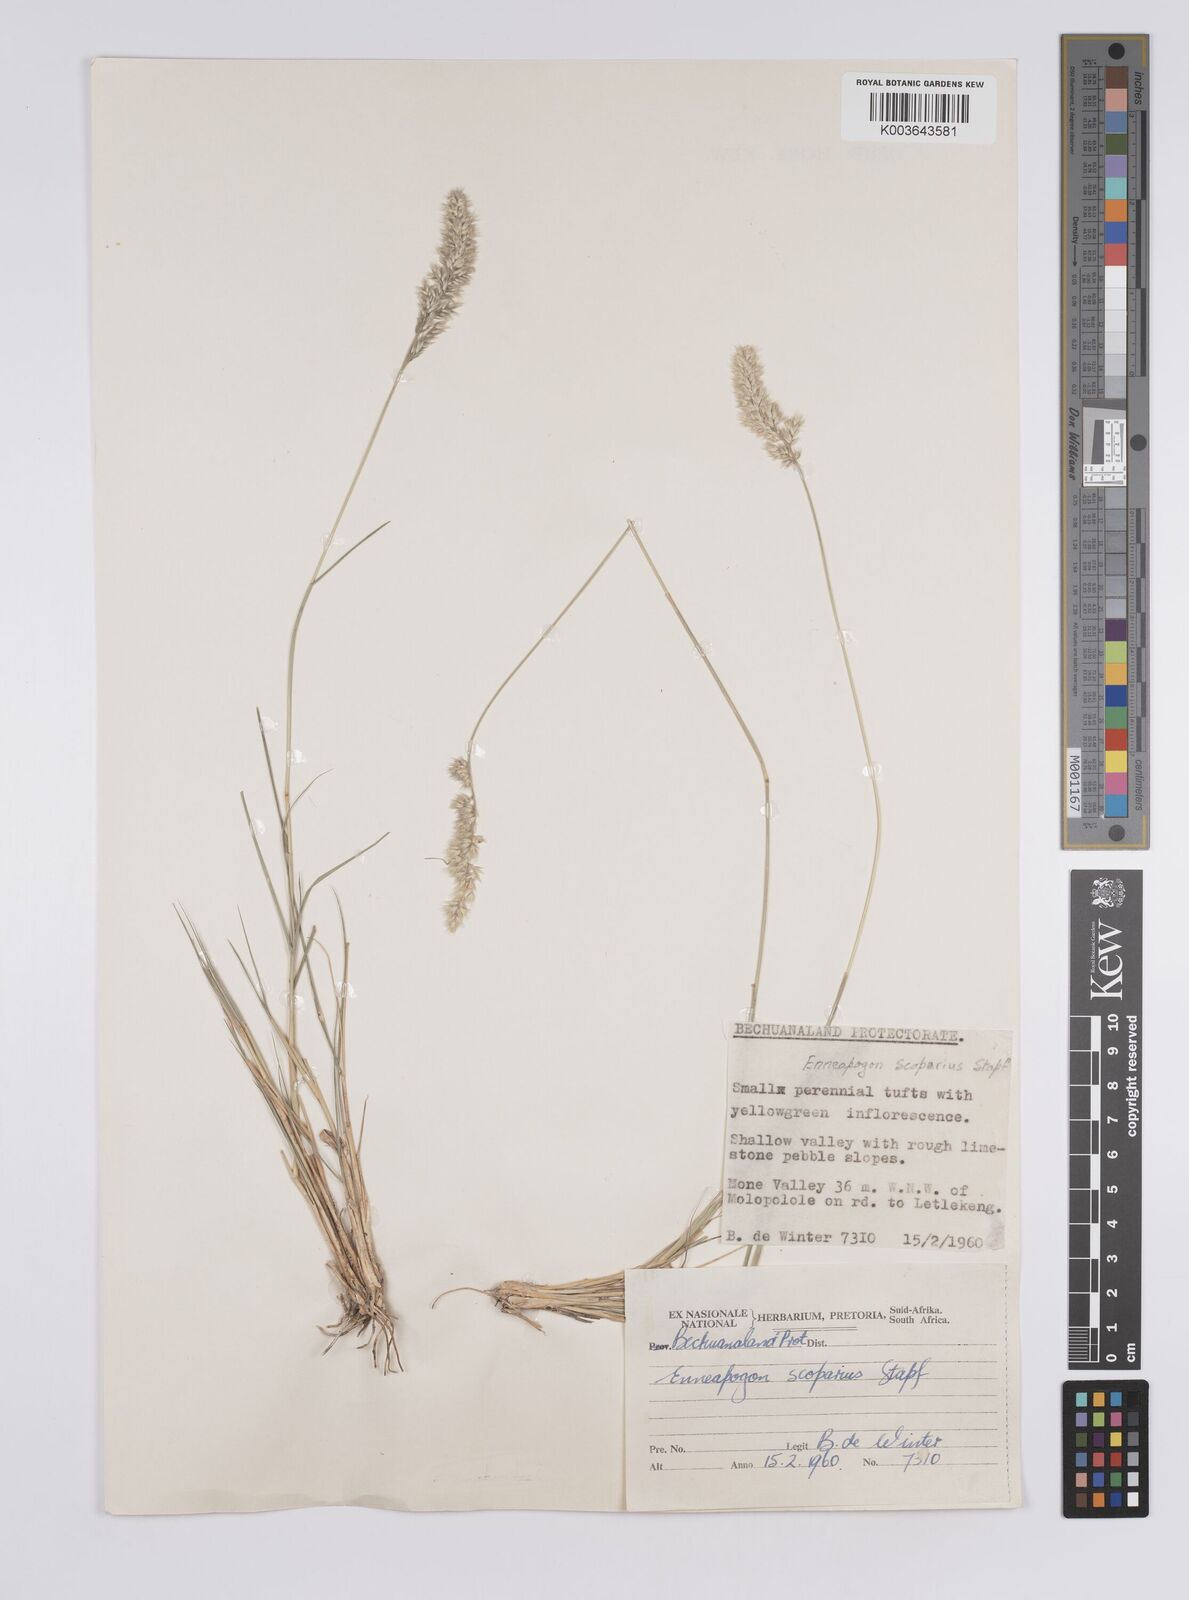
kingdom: Plantae
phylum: Tracheophyta
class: Liliopsida
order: Poales
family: Poaceae
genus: Enneapogon
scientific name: Enneapogon scoparius
